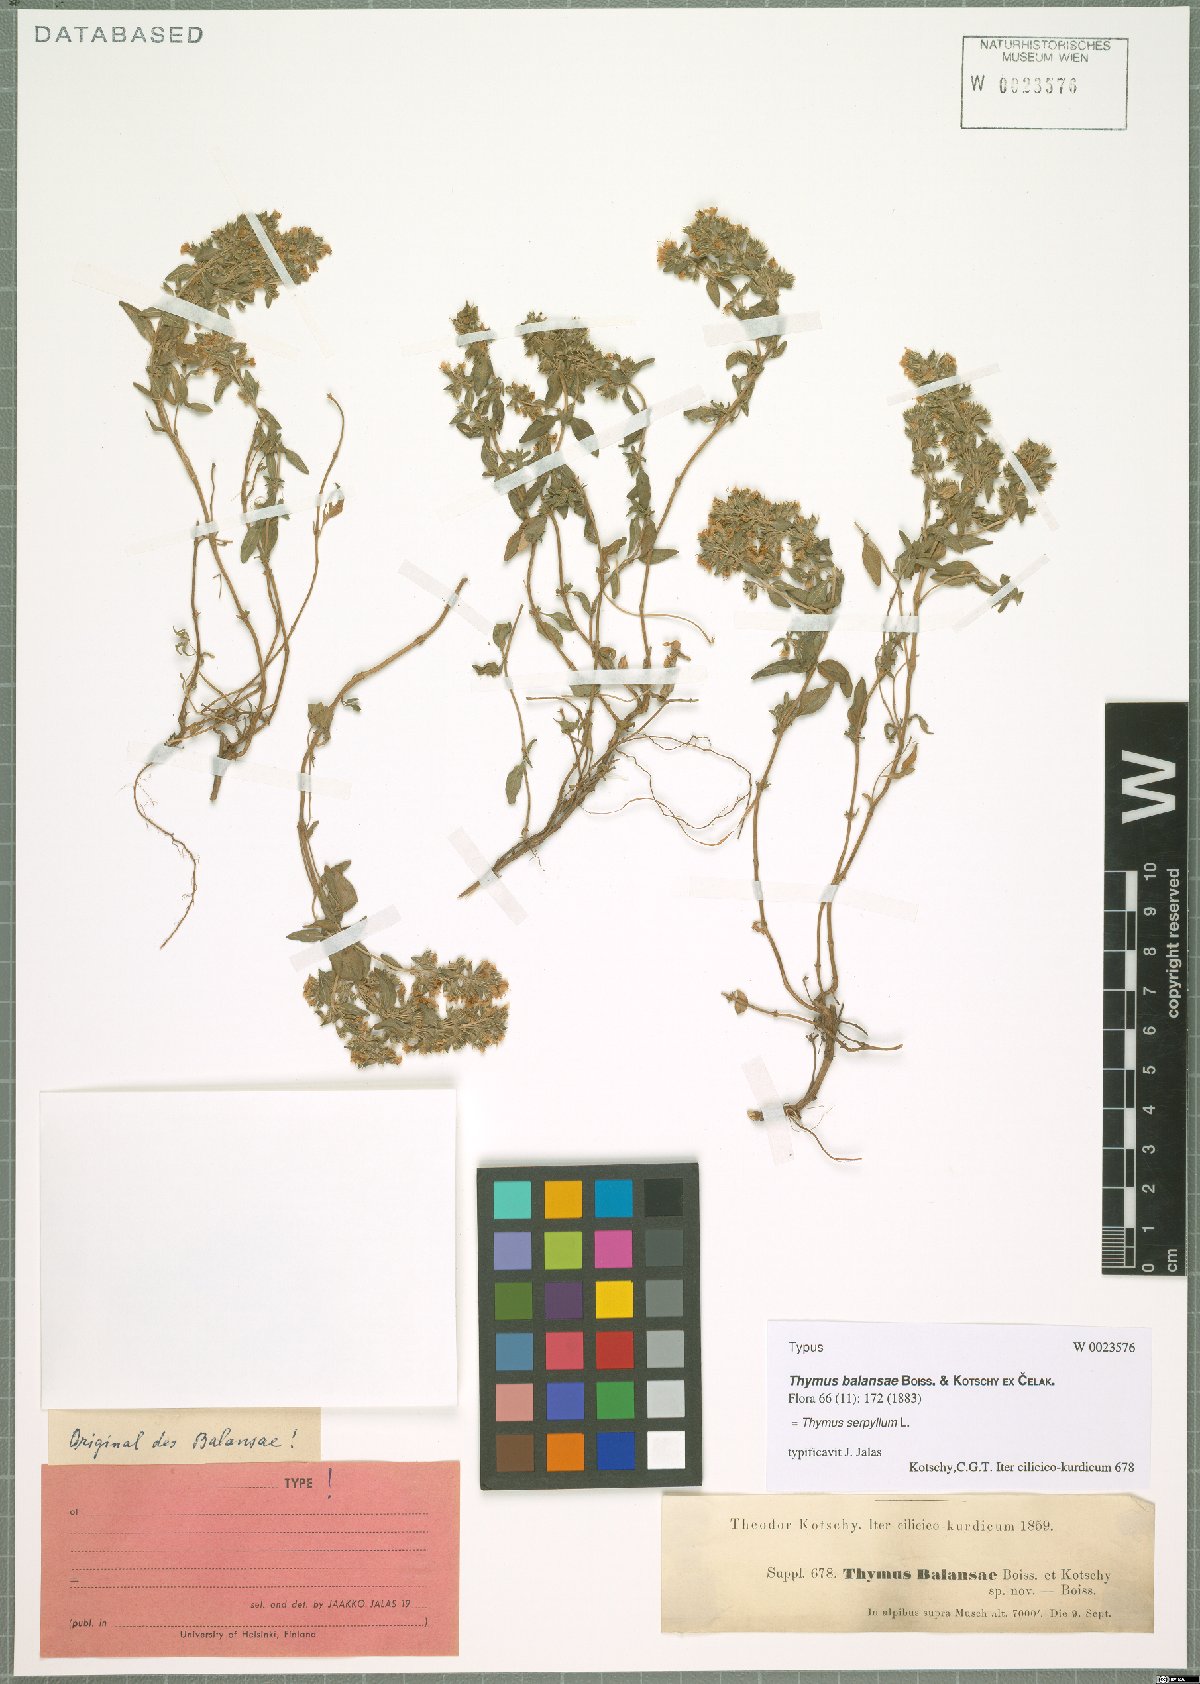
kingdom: Plantae
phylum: Tracheophyta
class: Magnoliopsida
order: Lamiales
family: Lamiaceae
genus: Thymus
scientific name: Thymus serpyllum
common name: Breckland thyme
